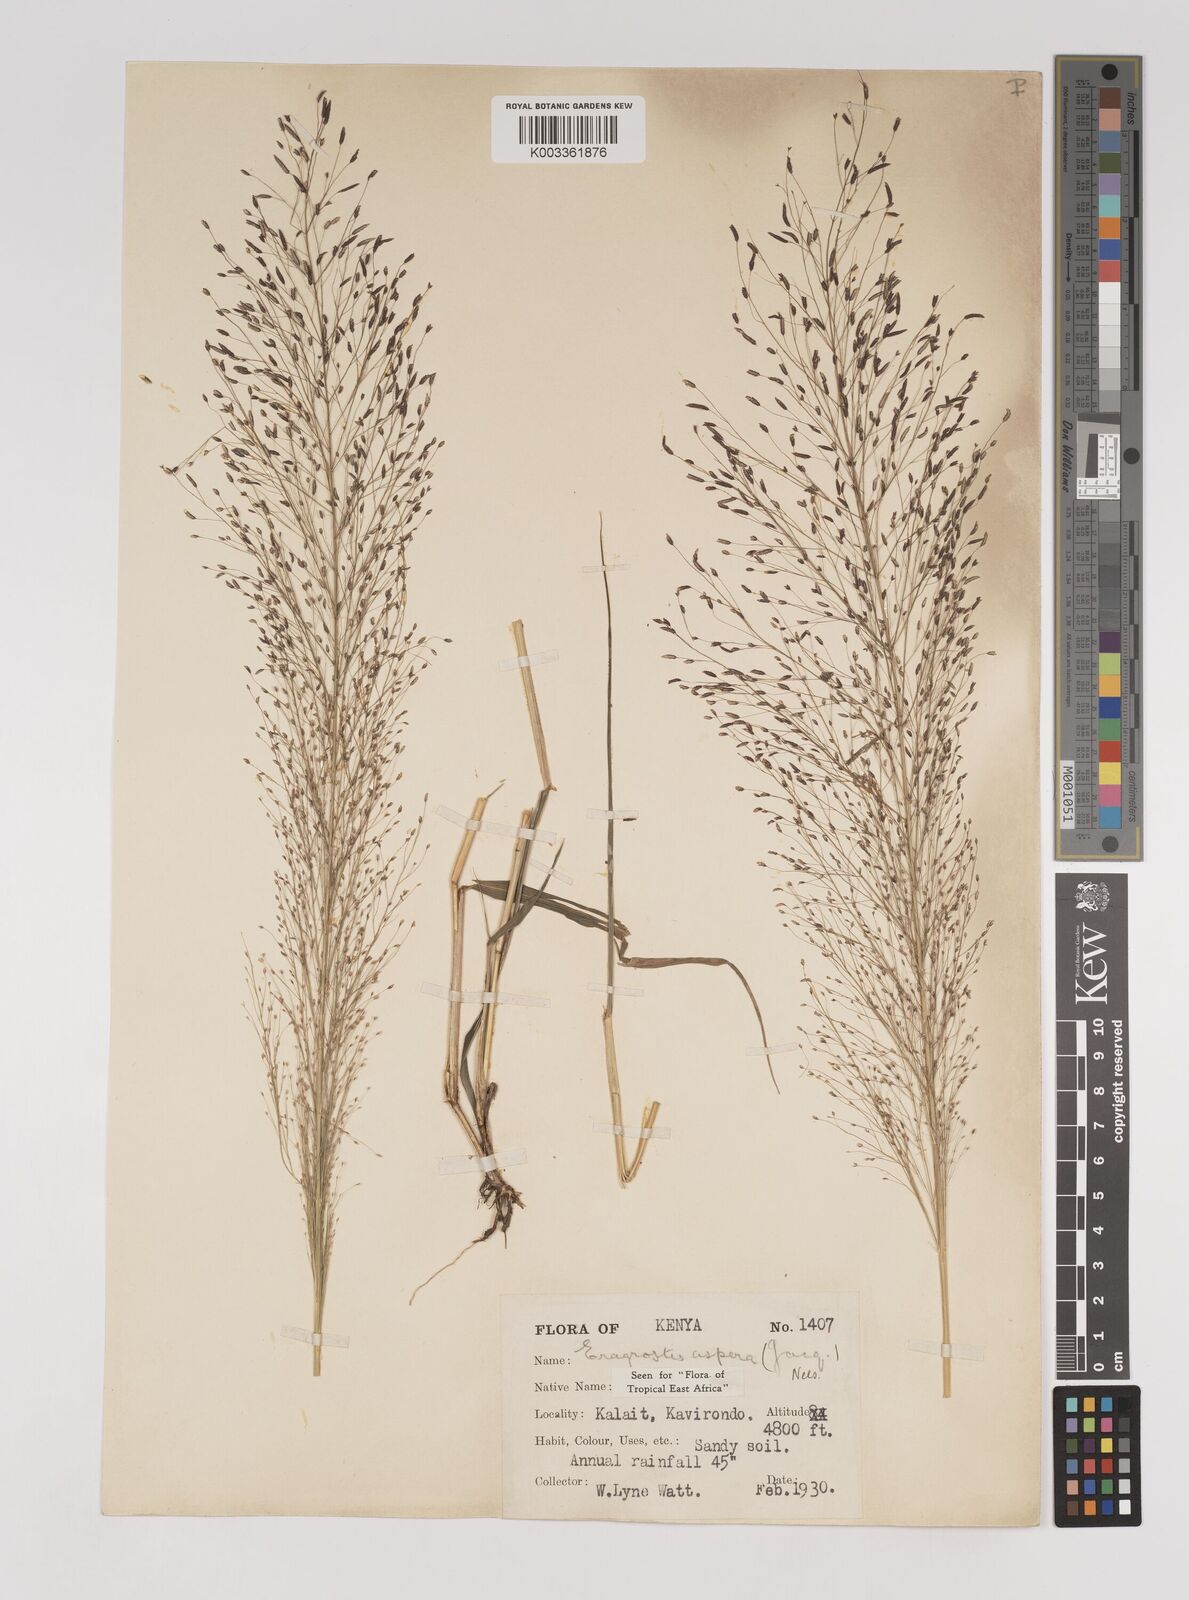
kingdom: Plantae
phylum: Tracheophyta
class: Liliopsida
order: Poales
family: Poaceae
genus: Eragrostis
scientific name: Eragrostis aspera
